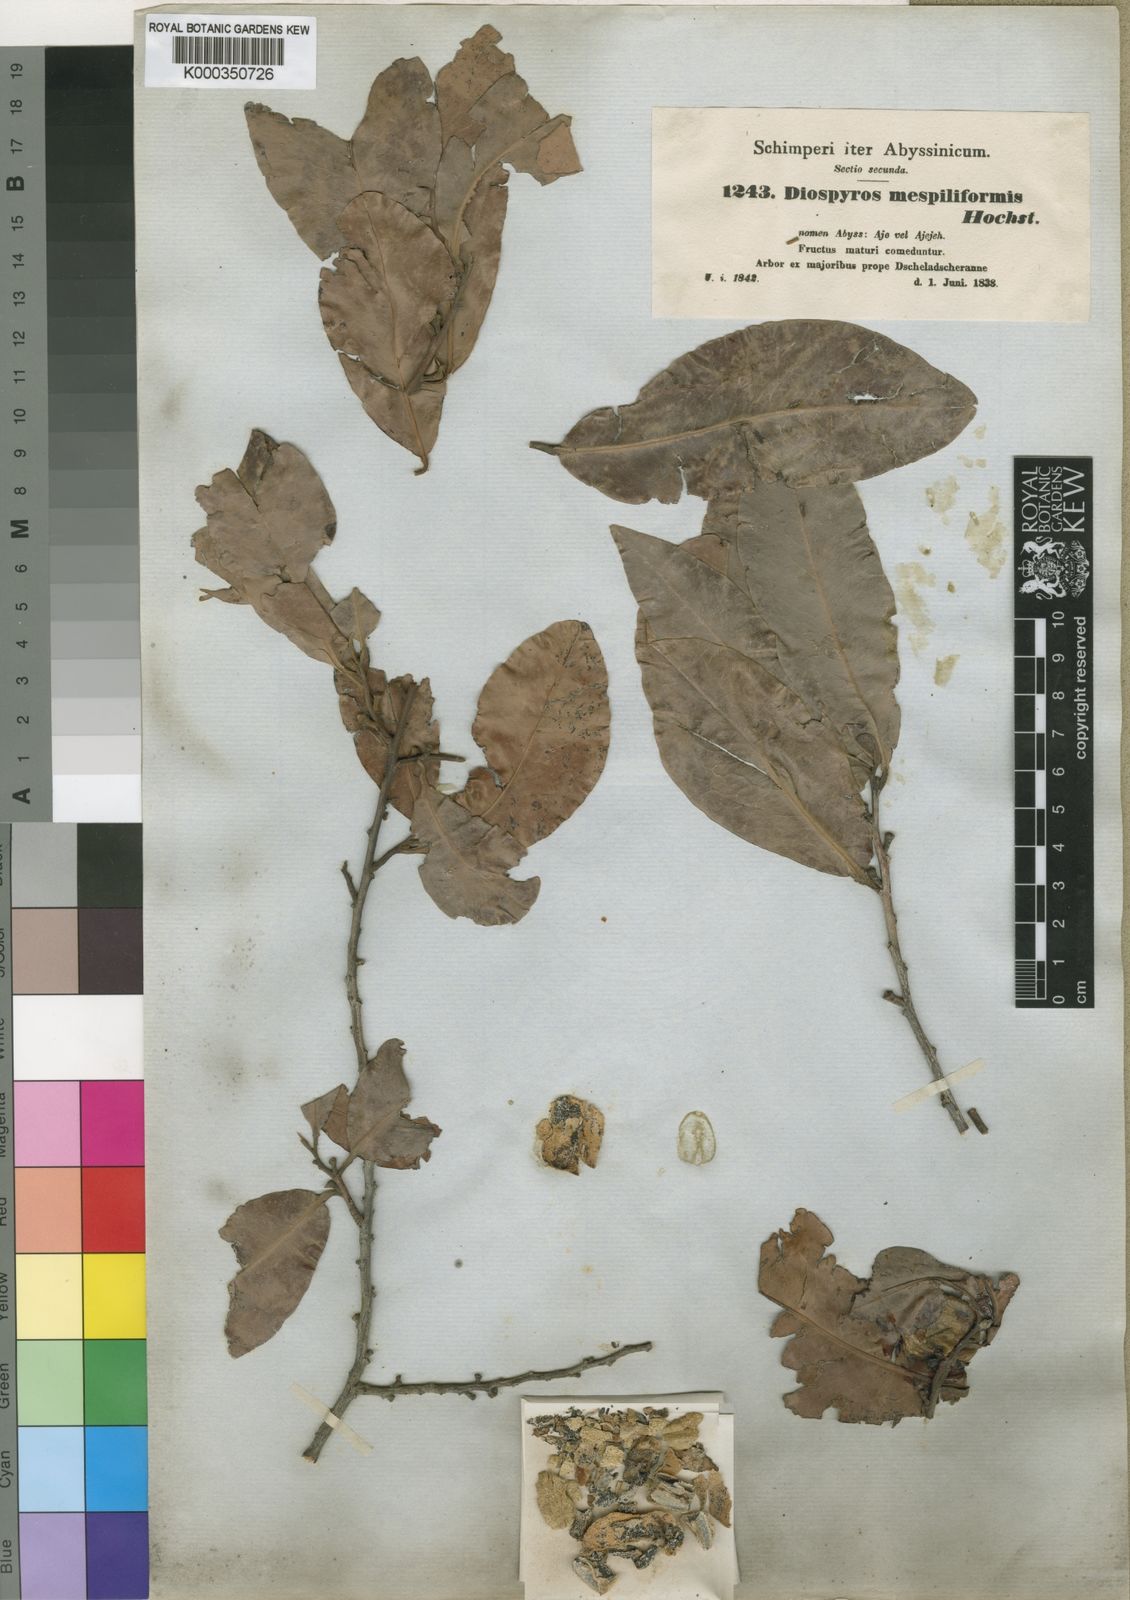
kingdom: Plantae
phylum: Tracheophyta
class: Magnoliopsida
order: Ericales
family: Ebenaceae
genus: Diospyros
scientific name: Diospyros mespiliformis
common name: Ebony diospyros
